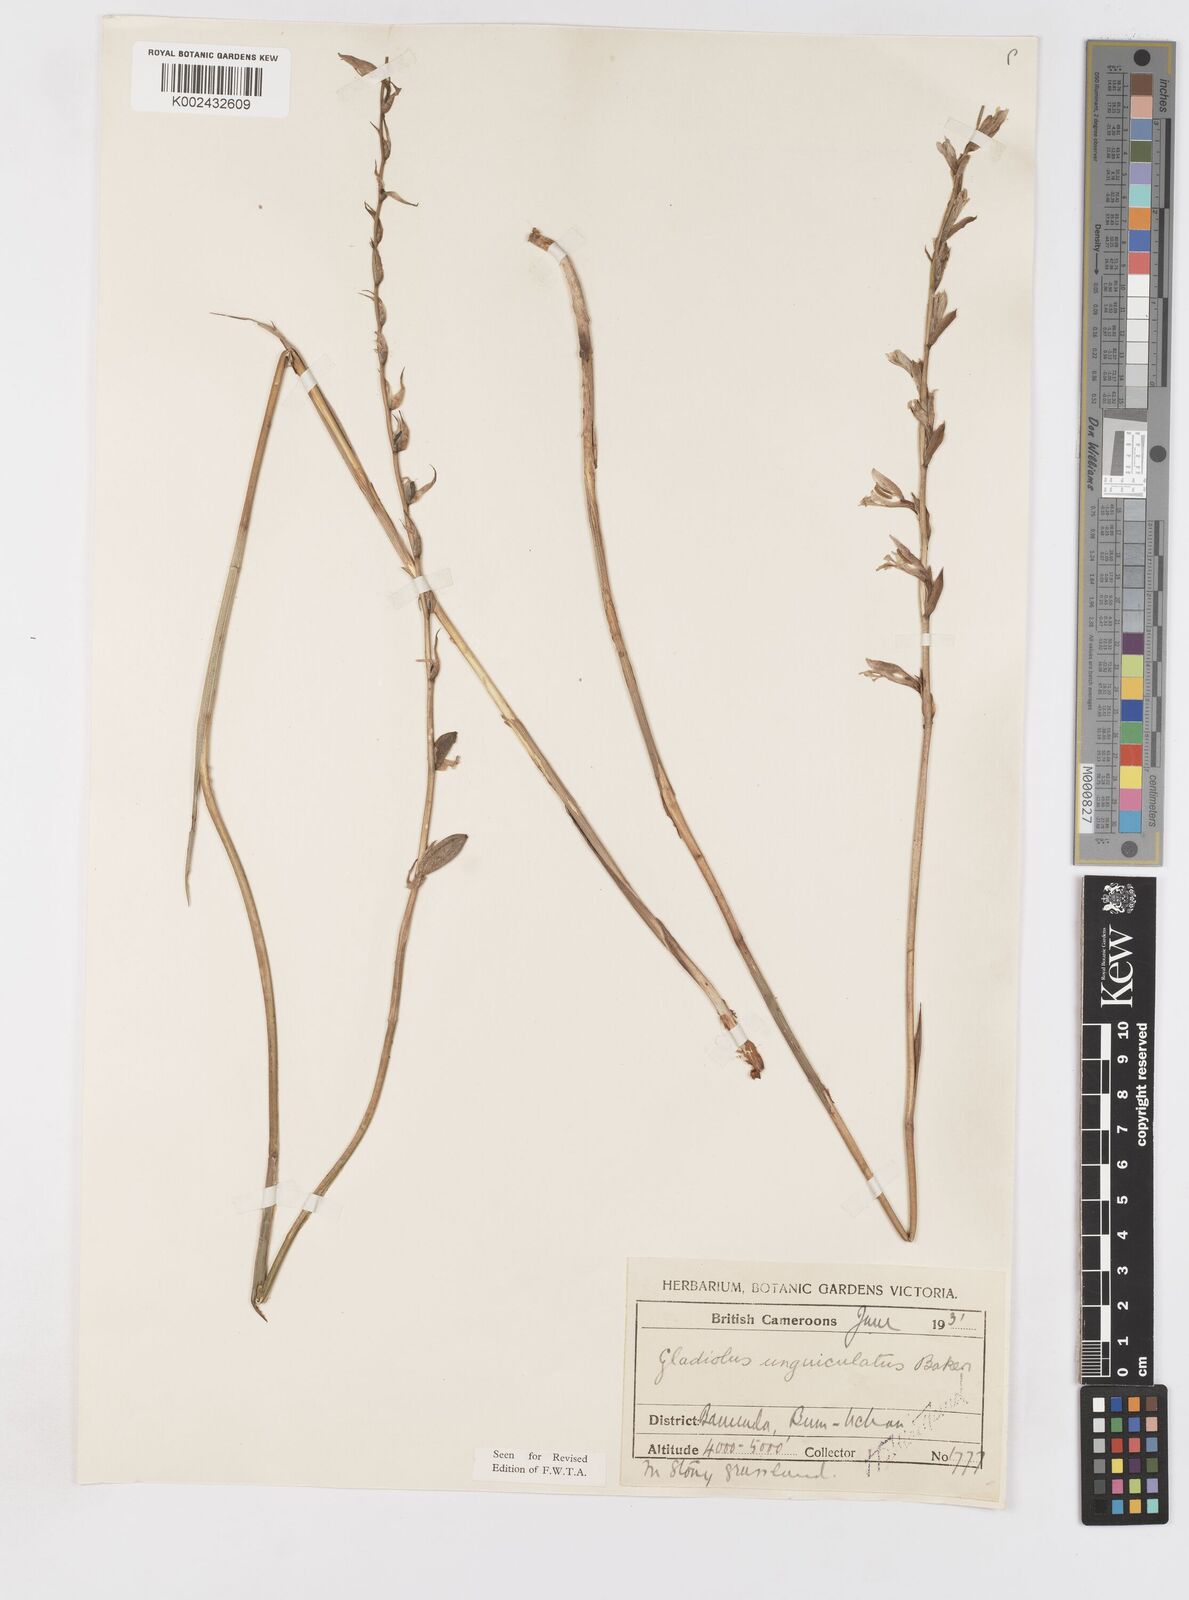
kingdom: Plantae
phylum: Tracheophyta
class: Liliopsida
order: Asparagales
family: Iridaceae
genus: Gladiolus
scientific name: Gladiolus unguiculatus
